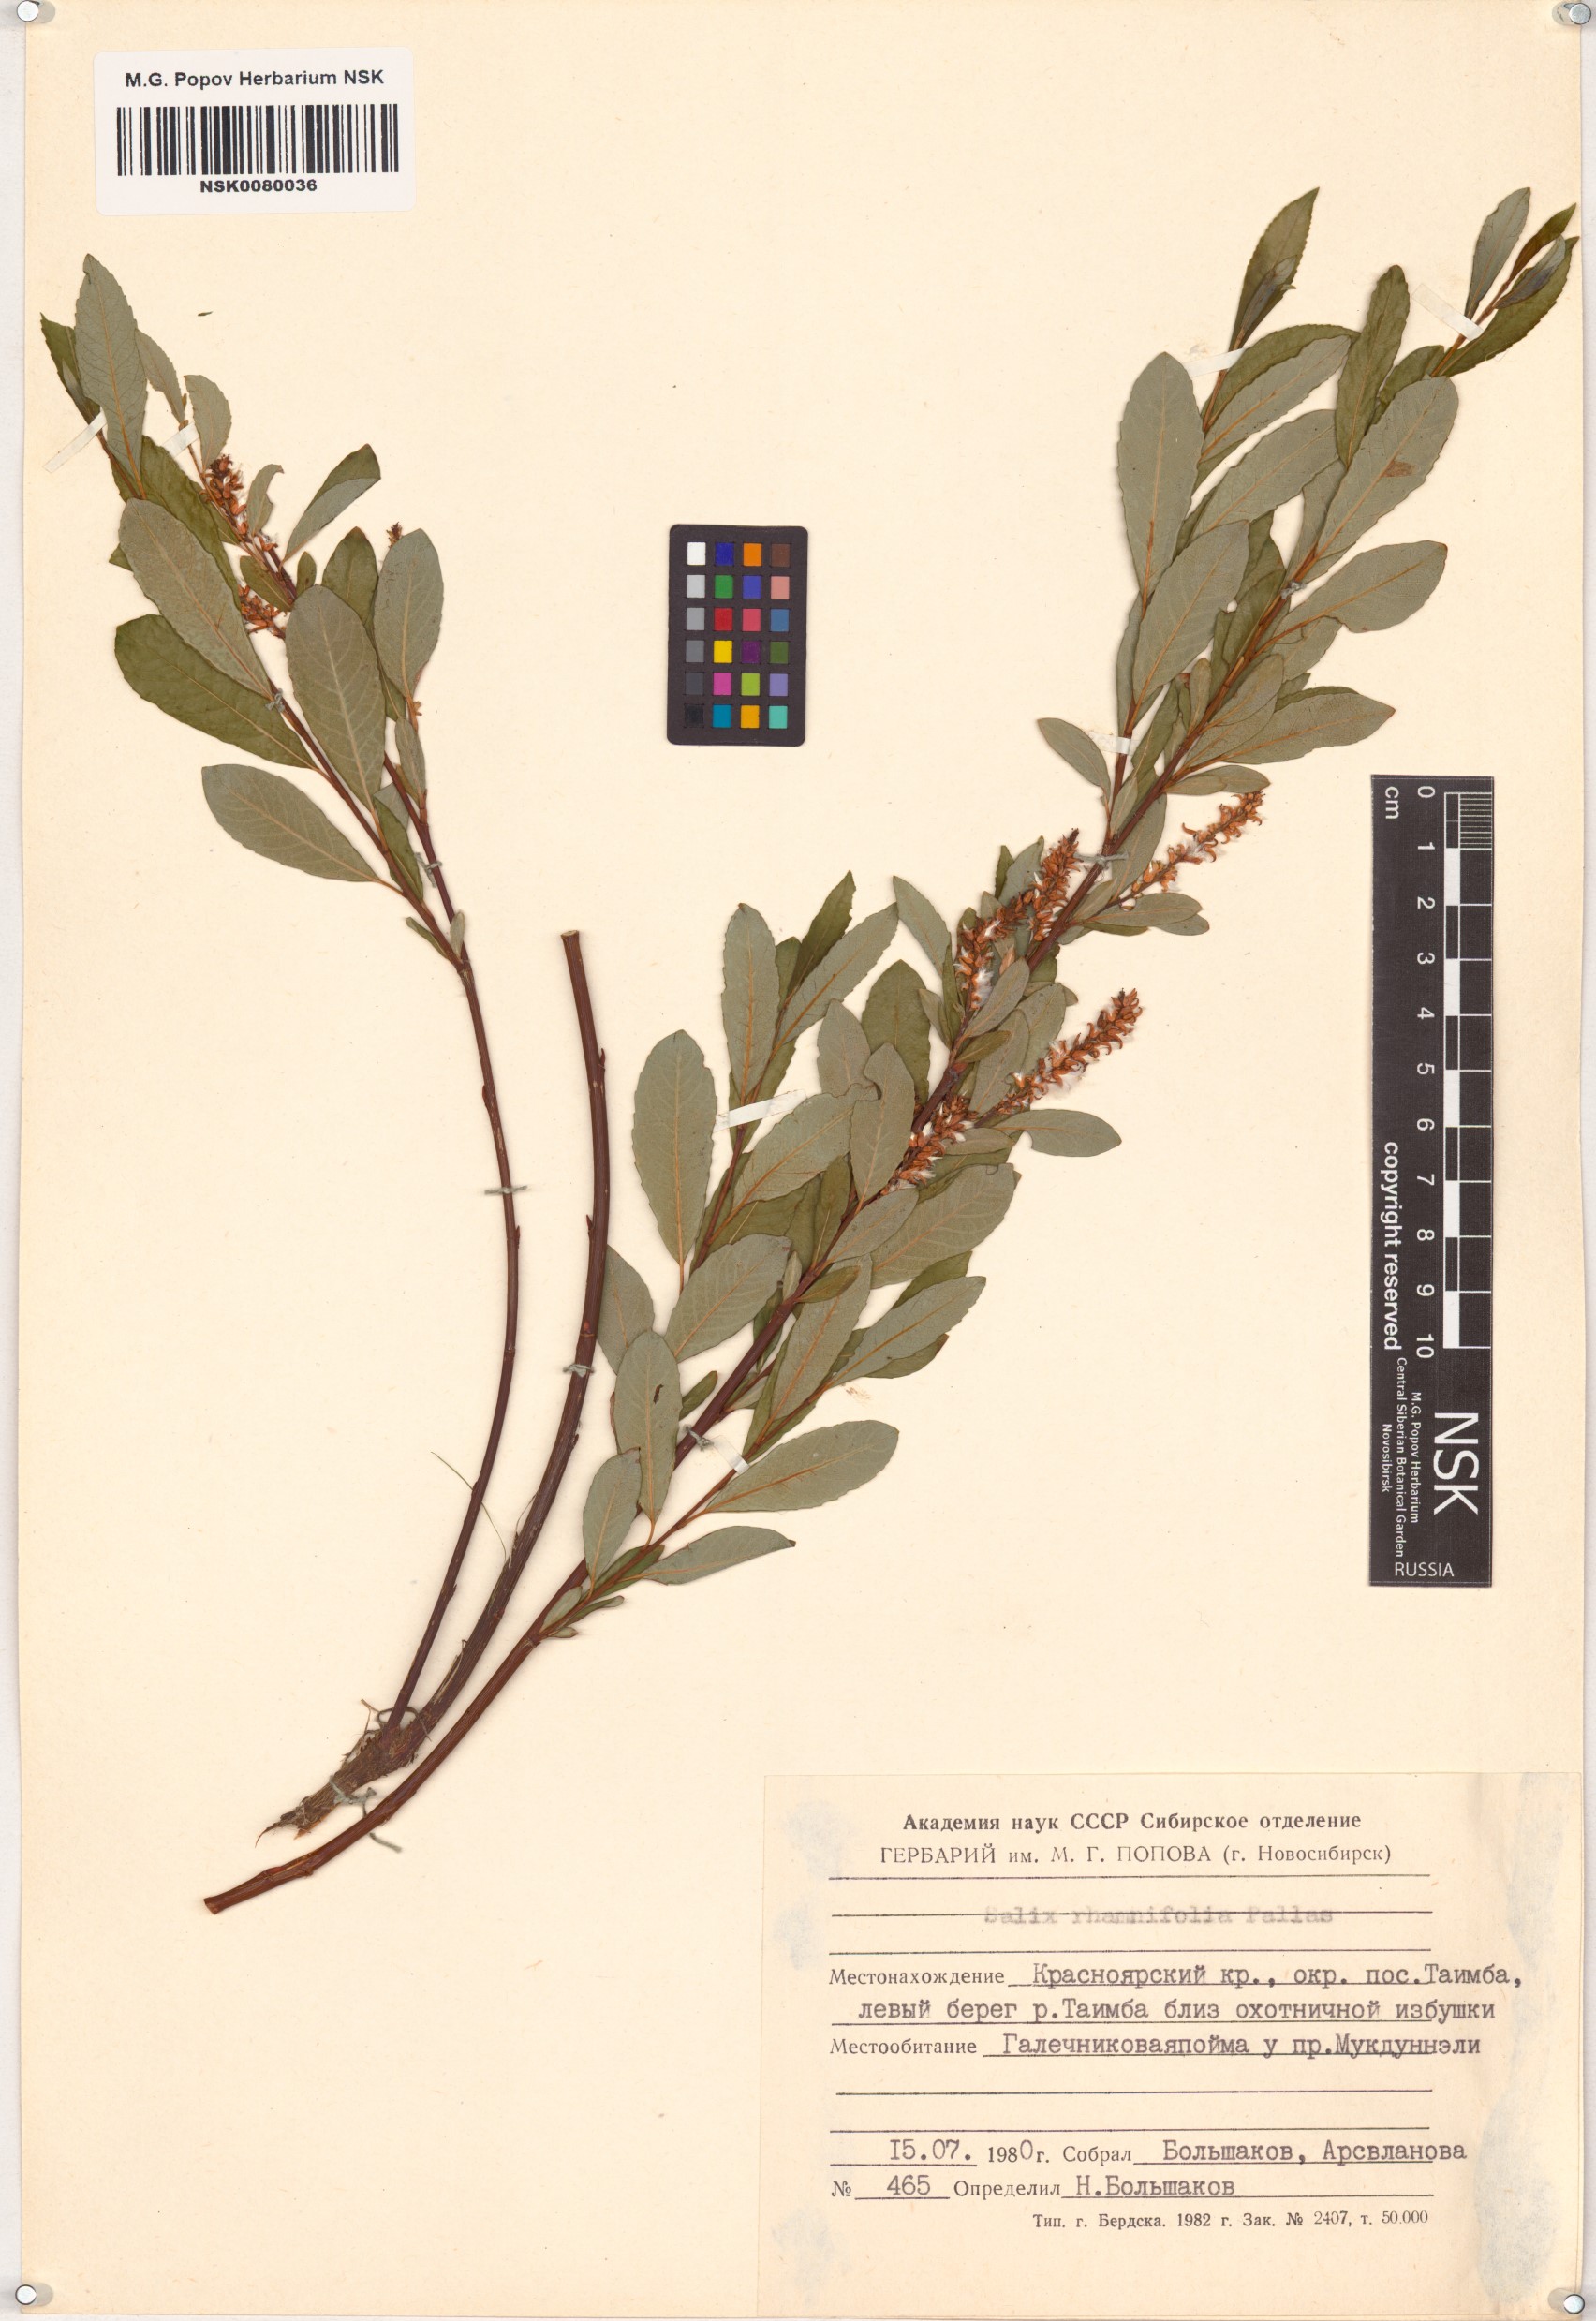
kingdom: Plantae
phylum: Tracheophyta
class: Magnoliopsida
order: Malpighiales
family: Salicaceae
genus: Salix
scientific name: Salix rhamnifolia
